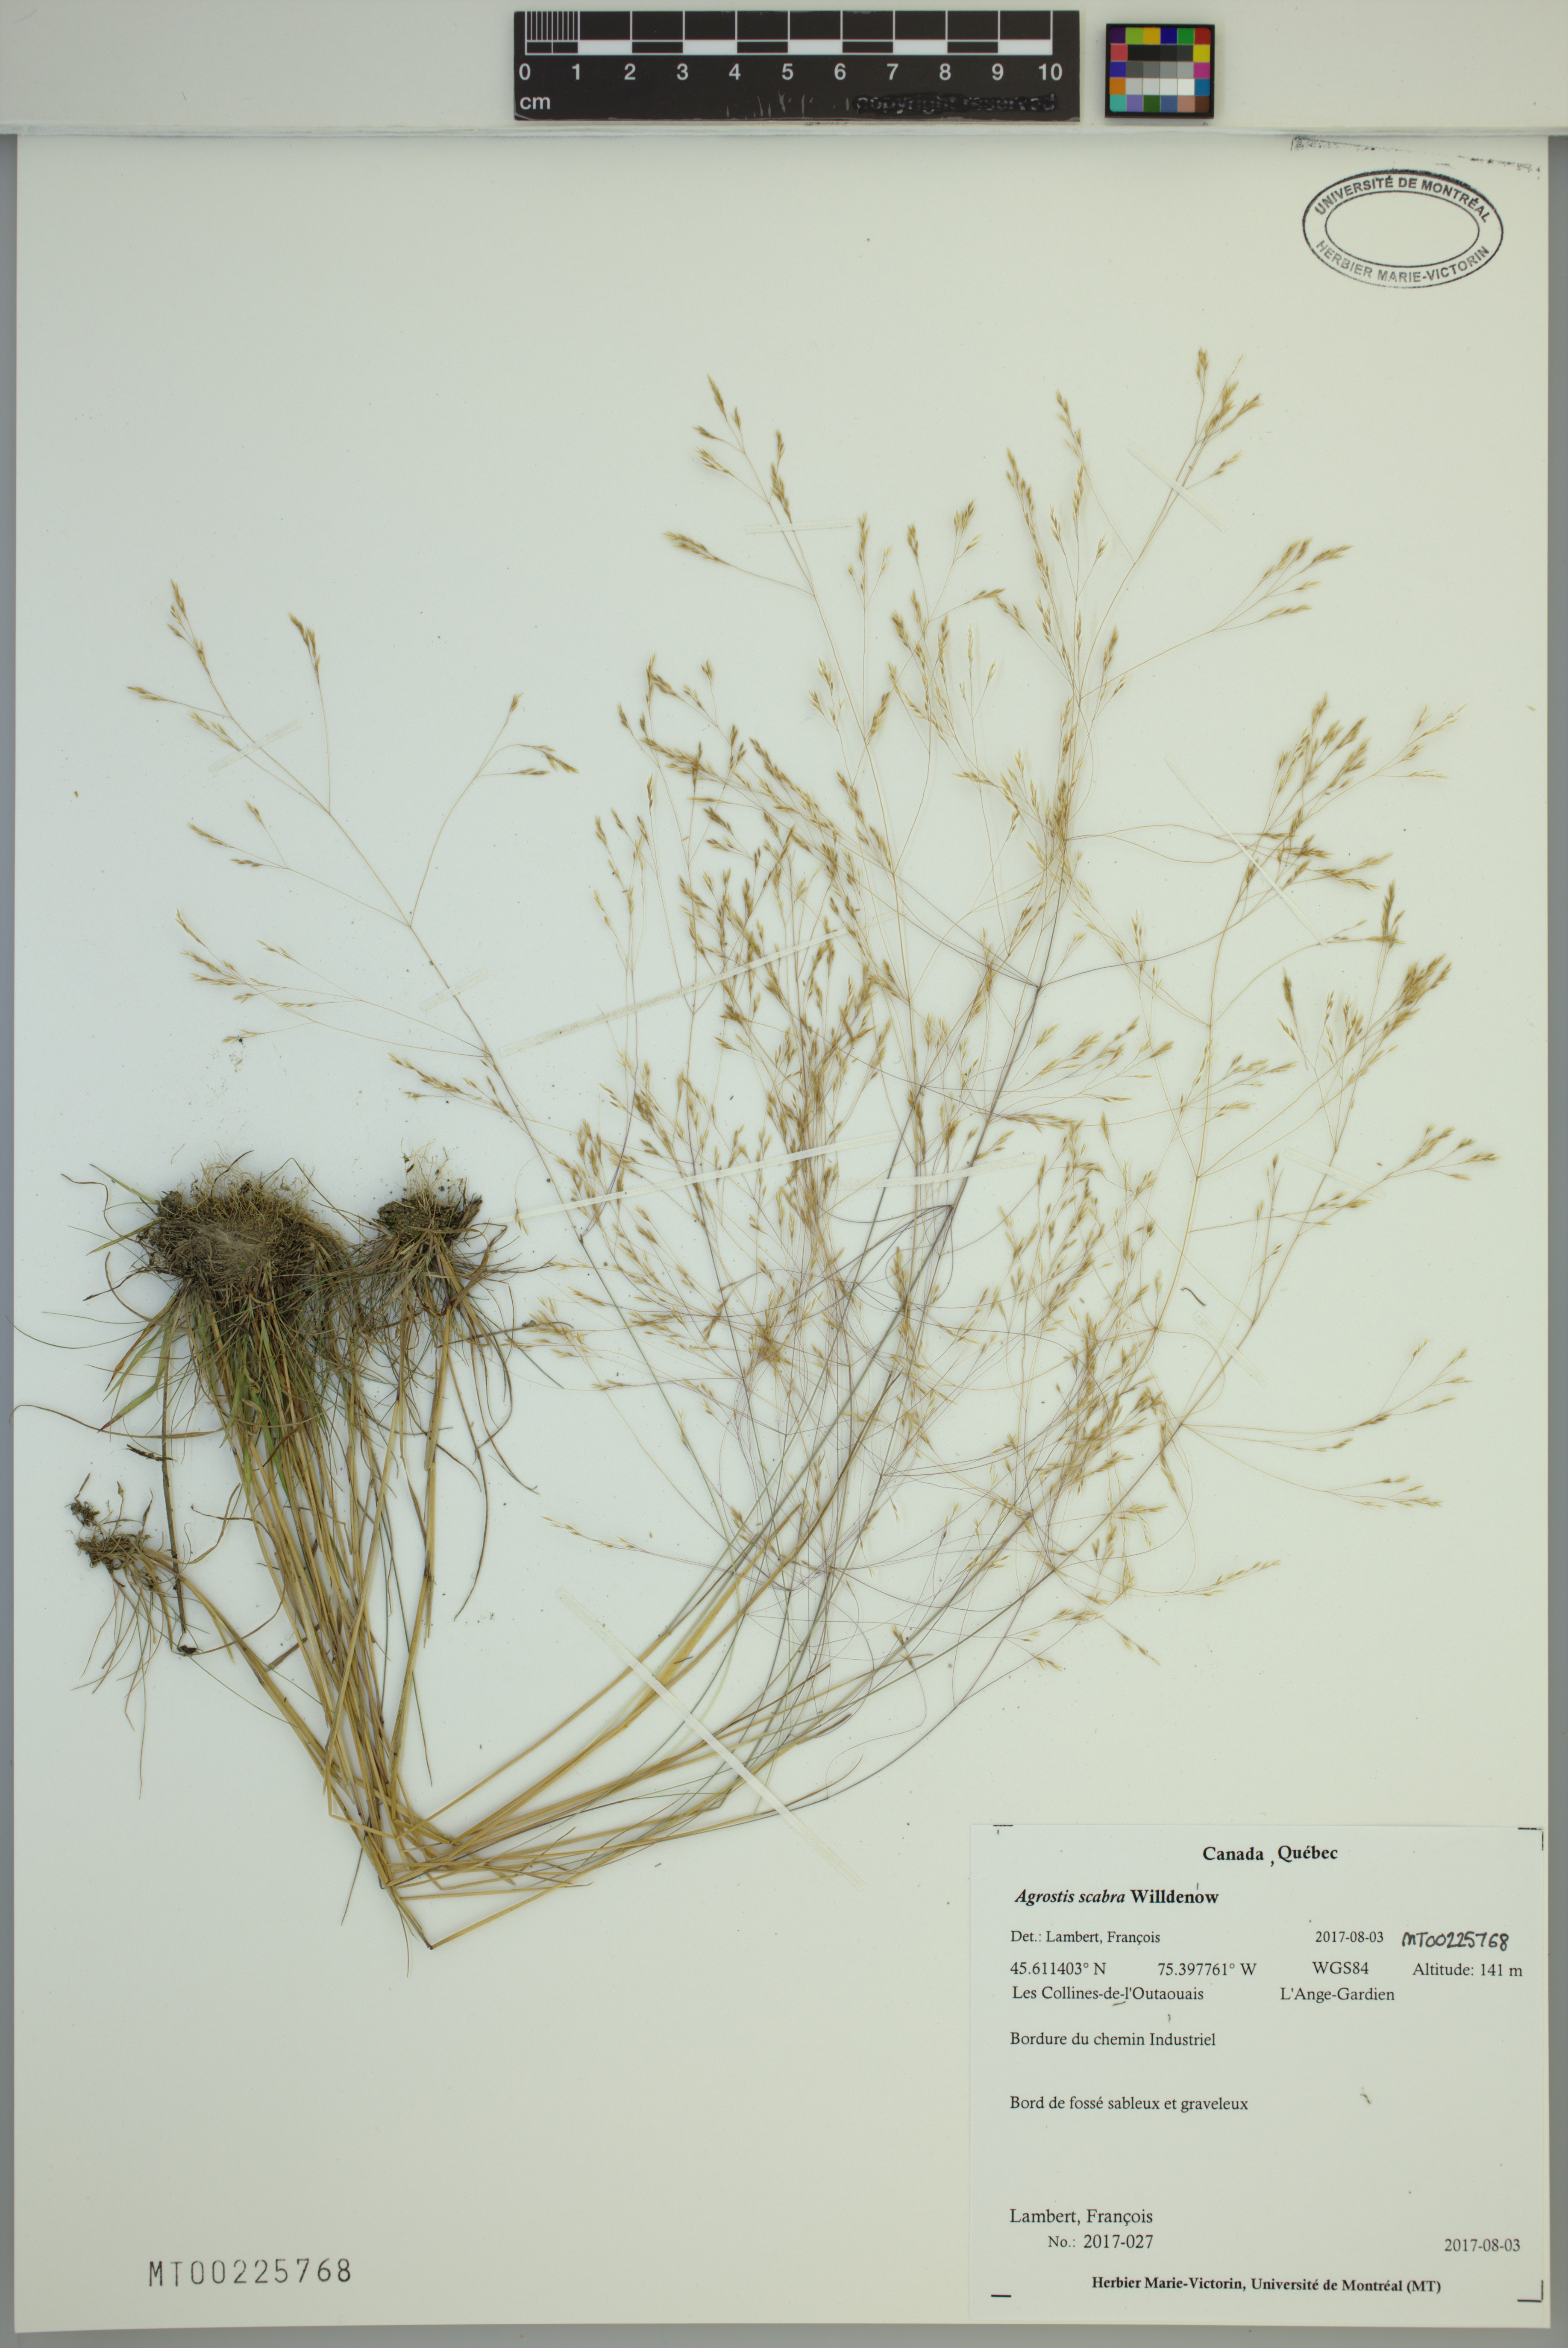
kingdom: Plantae
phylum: Tracheophyta
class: Liliopsida
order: Poales
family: Poaceae
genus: Agrostis
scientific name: Agrostis scabra
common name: Rough bent
